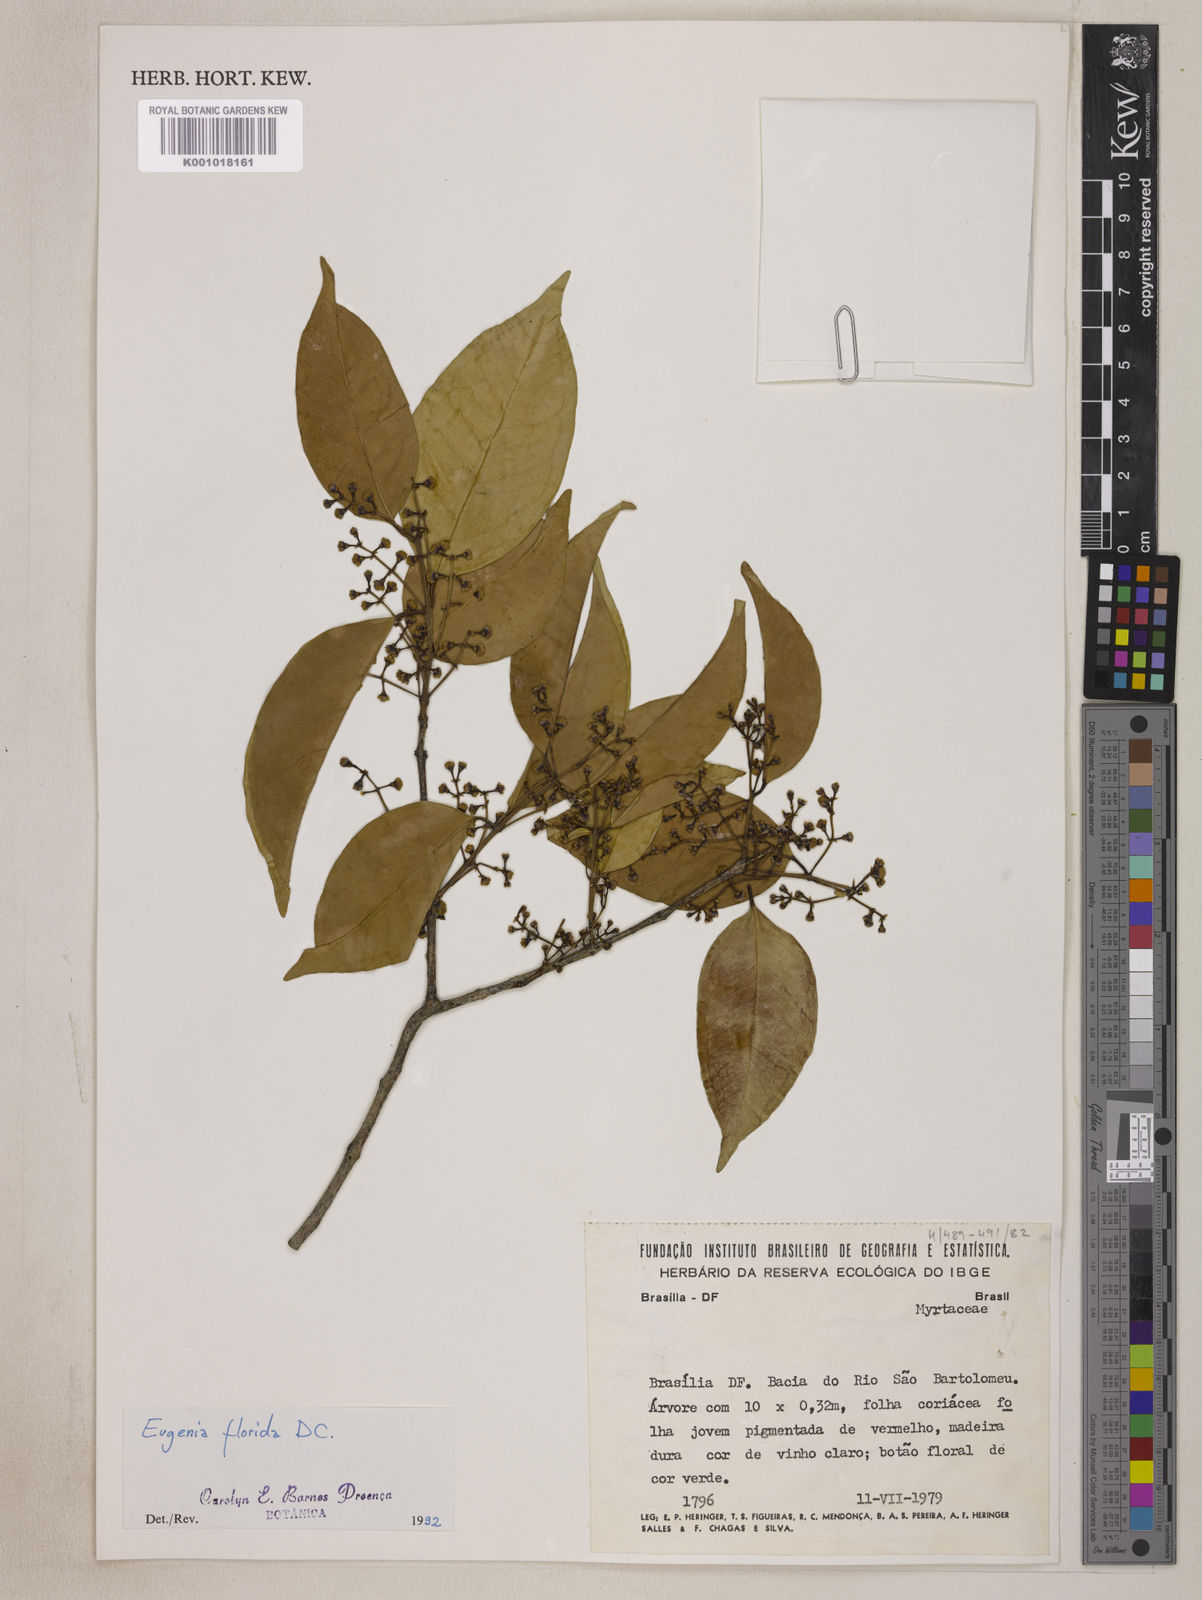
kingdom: Plantae
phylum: Tracheophyta
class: Magnoliopsida
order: Myrtales
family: Myrtaceae
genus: Eugenia
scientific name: Eugenia florida
